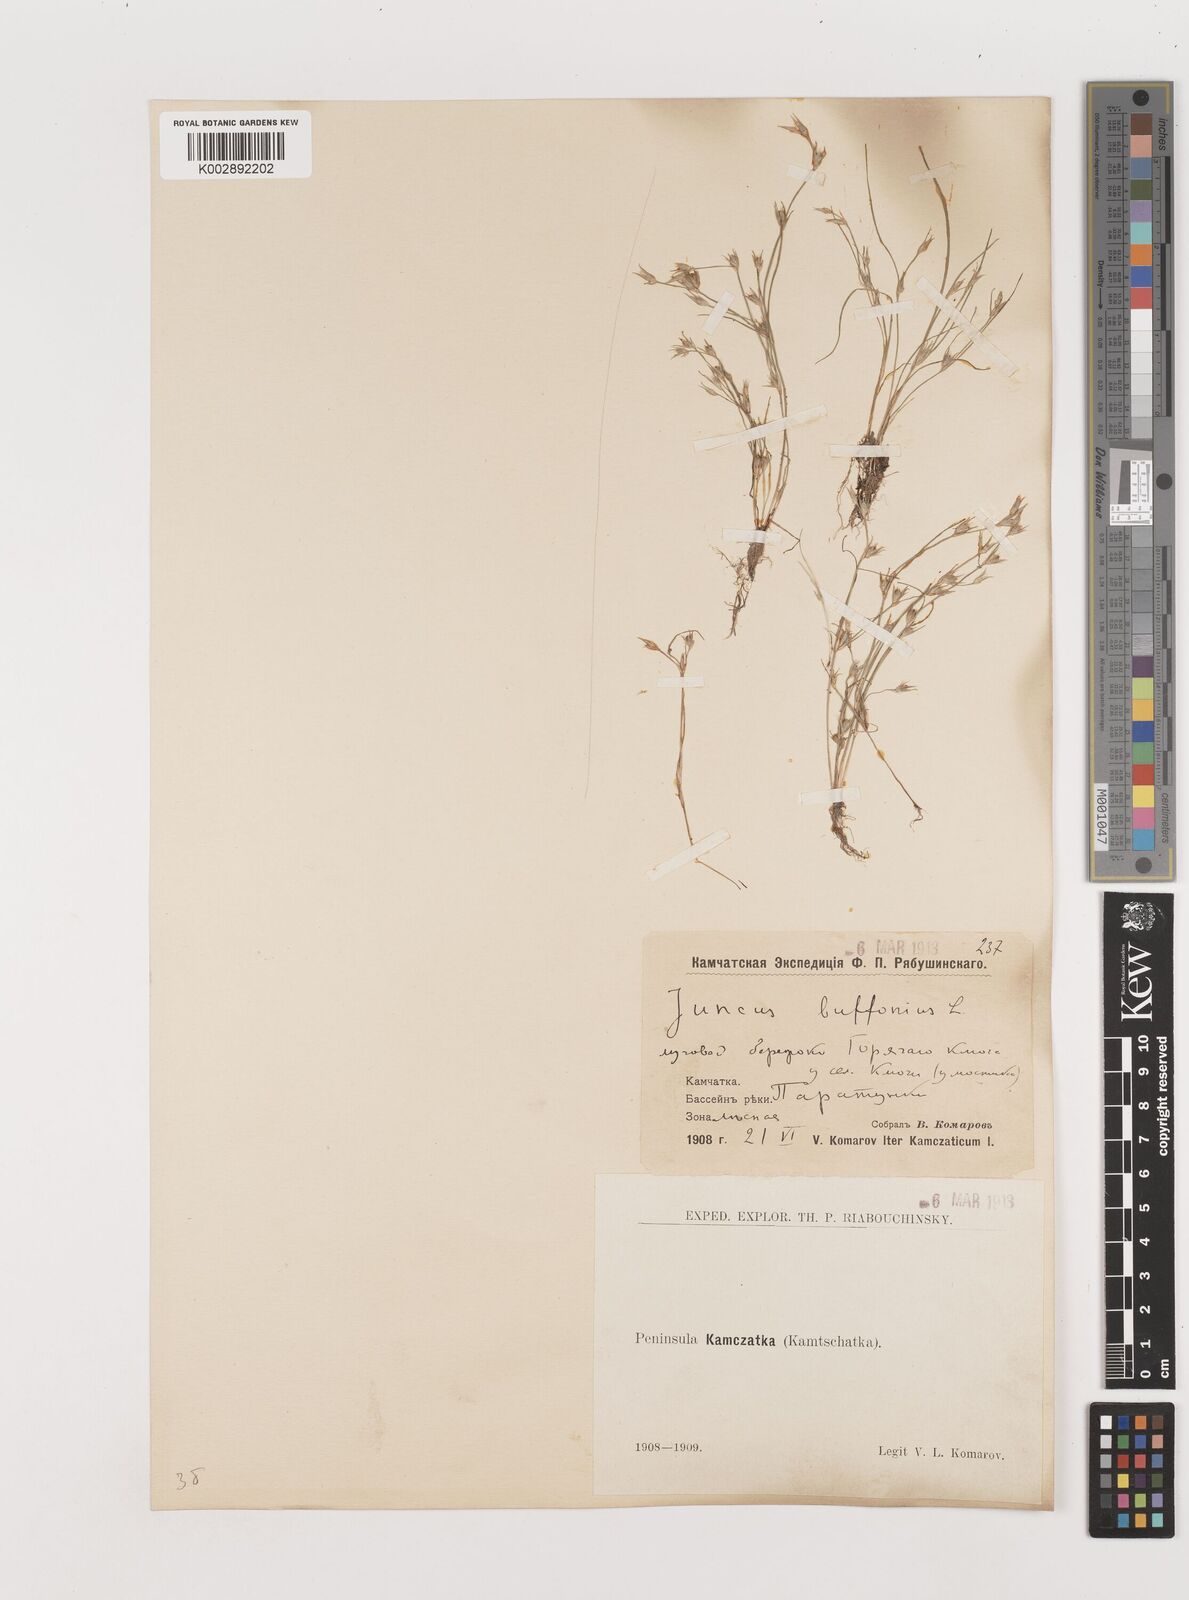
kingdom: Plantae
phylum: Tracheophyta
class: Liliopsida
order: Poales
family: Juncaceae
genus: Juncus
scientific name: Juncus bufonius
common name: Toad rush
